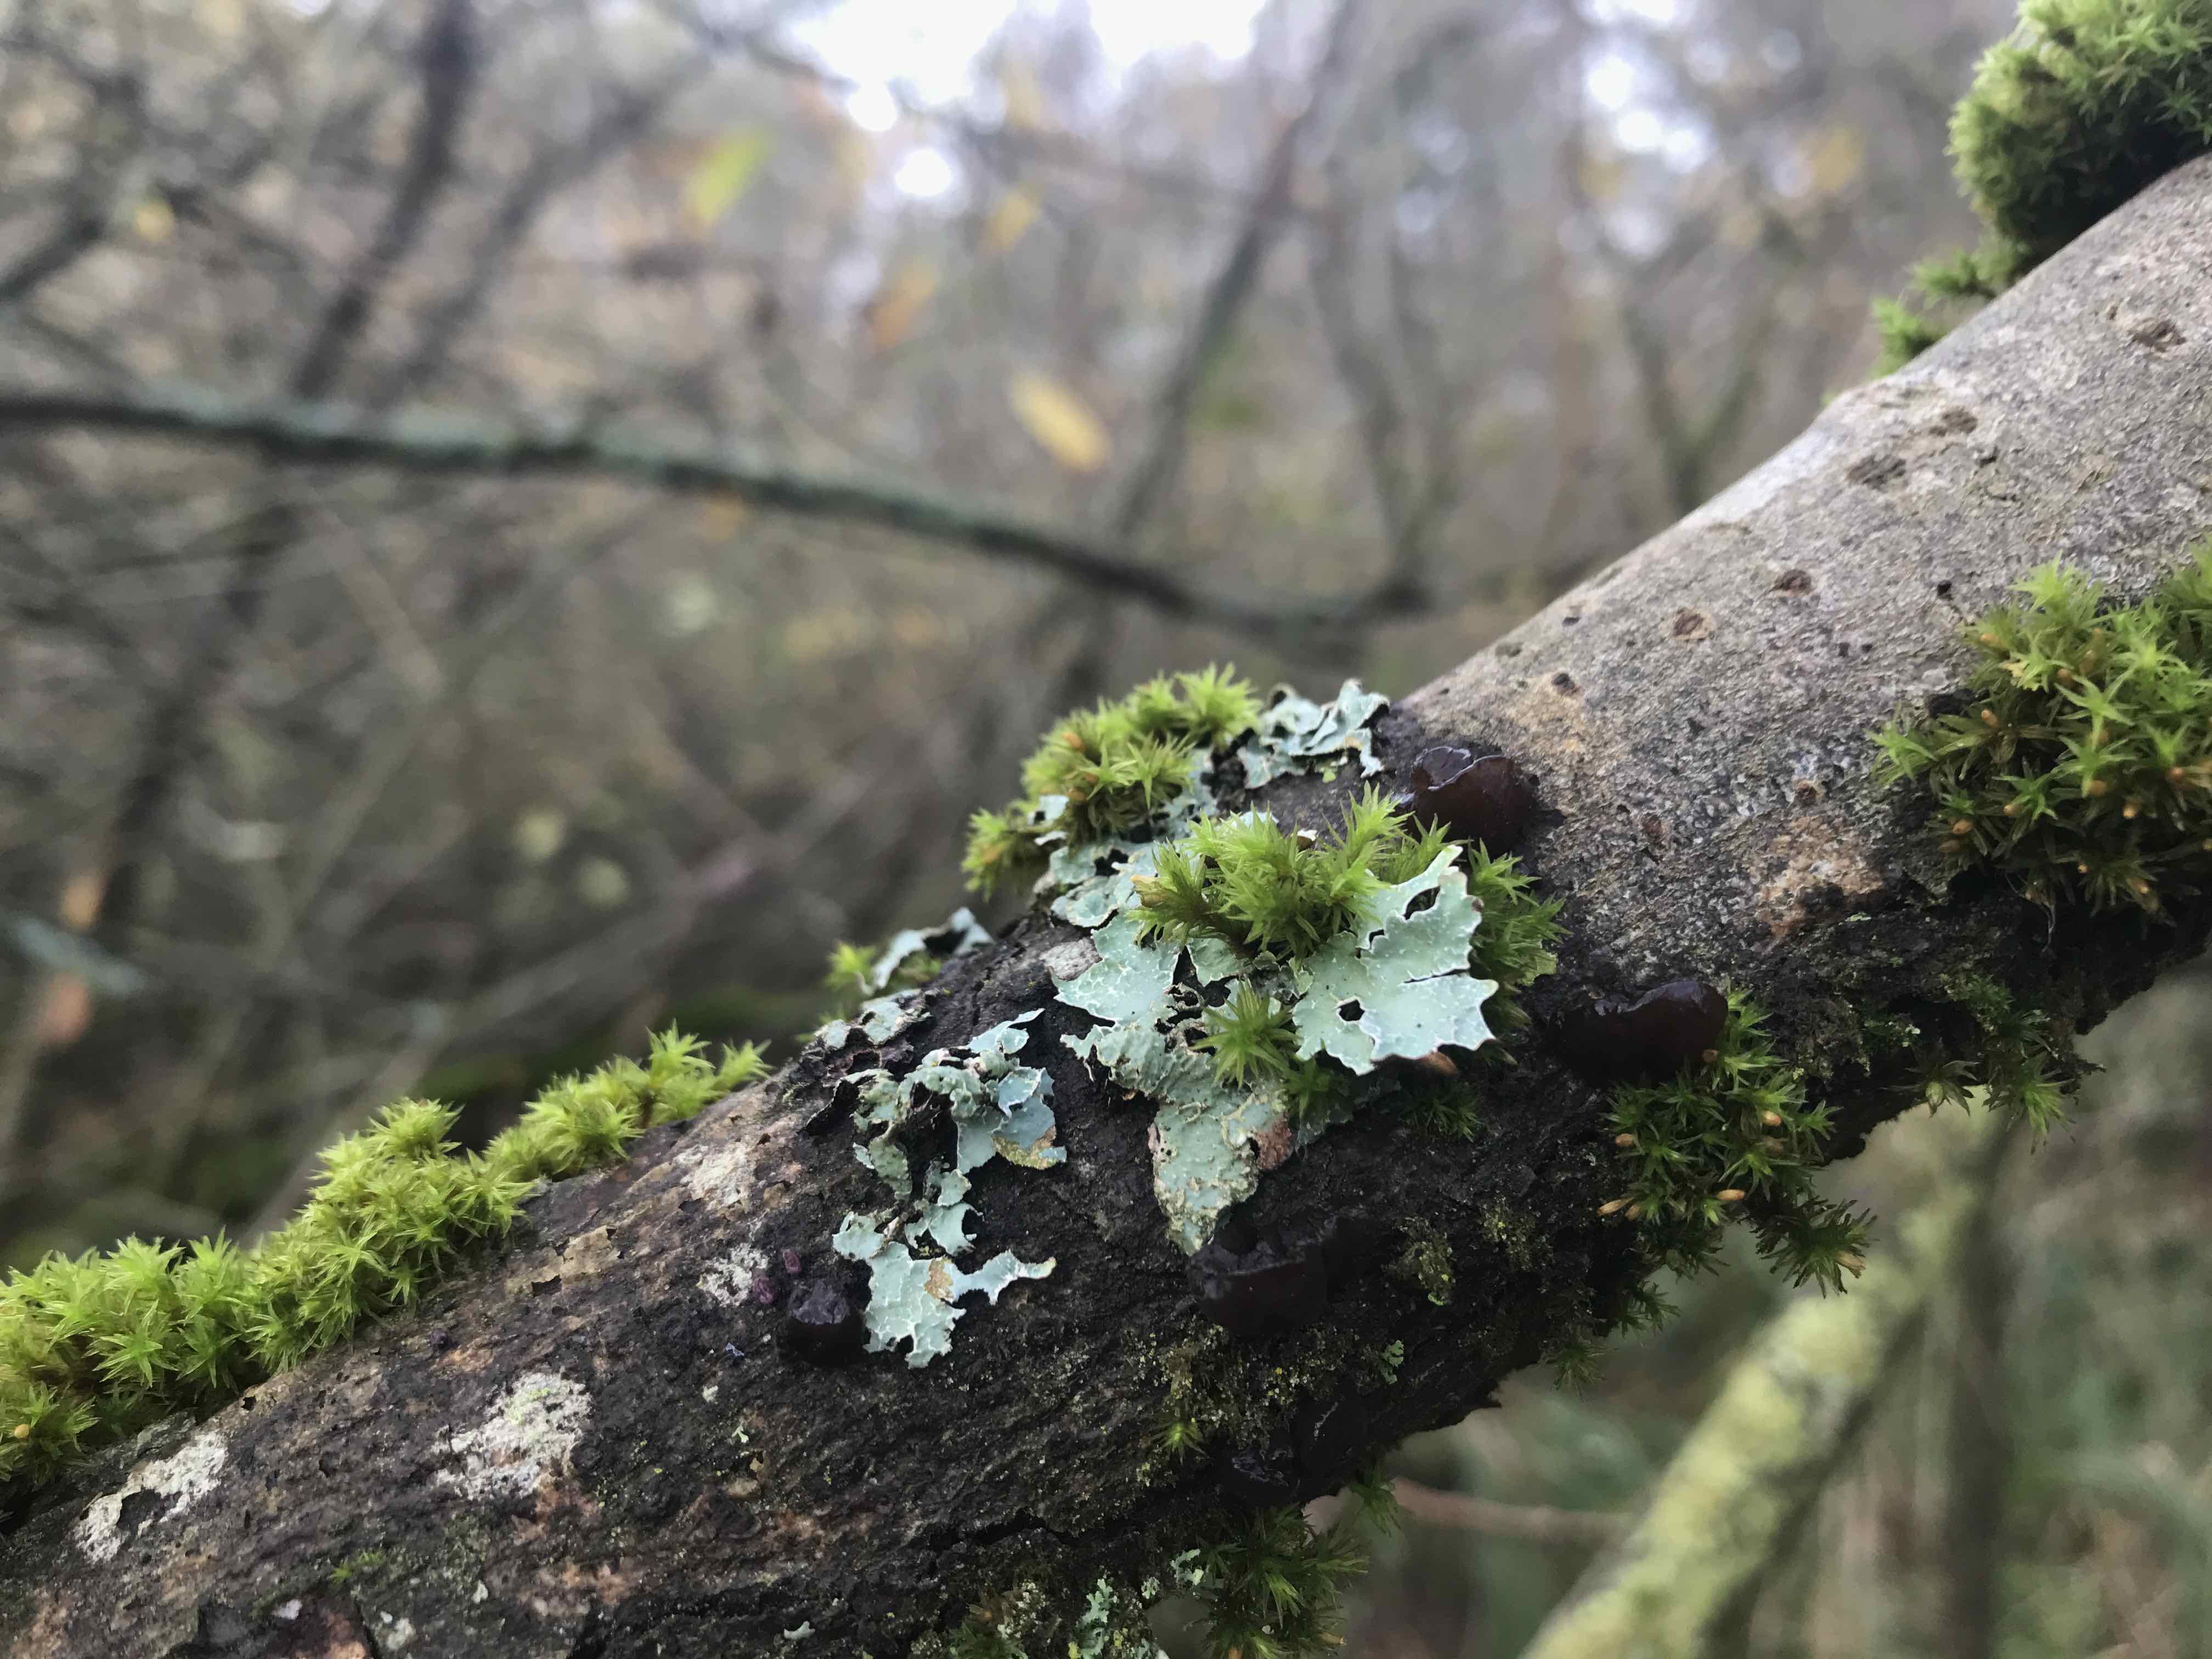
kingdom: Fungi
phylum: Basidiomycota
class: Agaricomycetes
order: Auriculariales
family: Auriculariaceae
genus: Exidia
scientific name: Exidia recisa
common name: pile-bævretop
